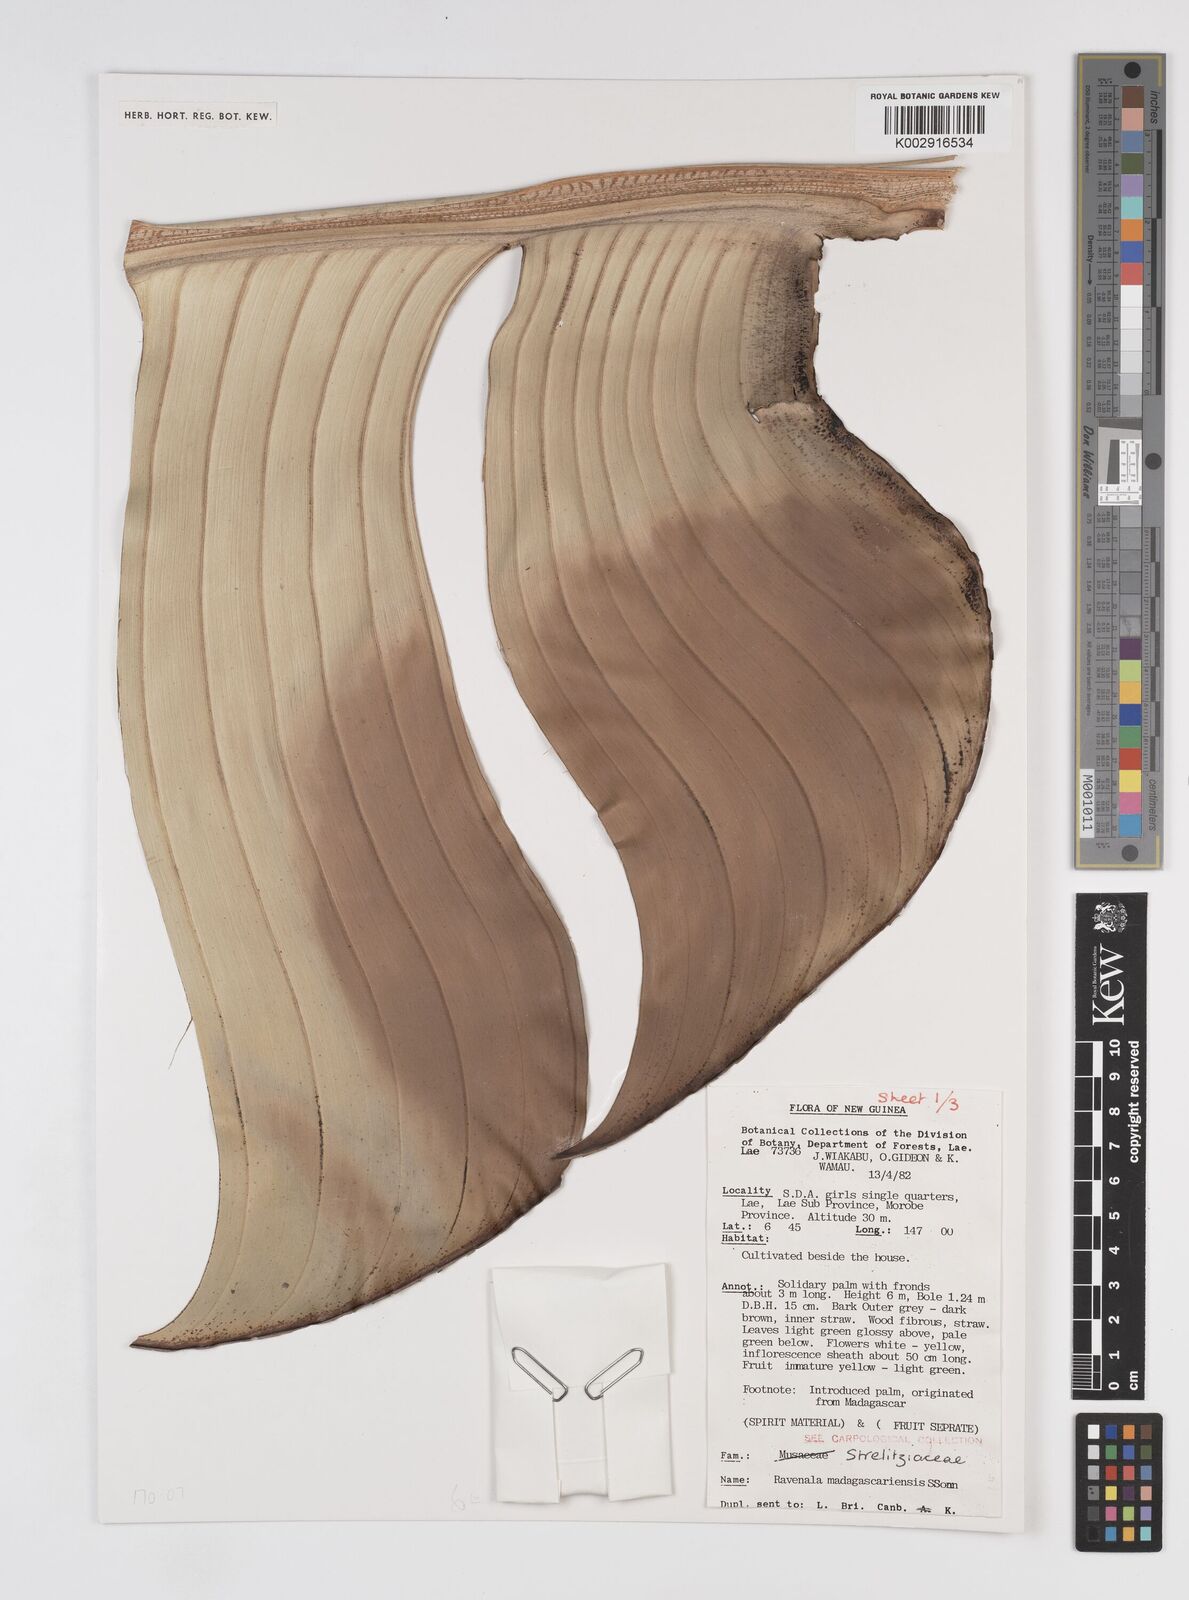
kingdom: Plantae
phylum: Tracheophyta
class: Liliopsida
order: Zingiberales
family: Strelitziaceae
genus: Ravenala
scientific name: Ravenala madagascariensis
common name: Traveler's-palm
